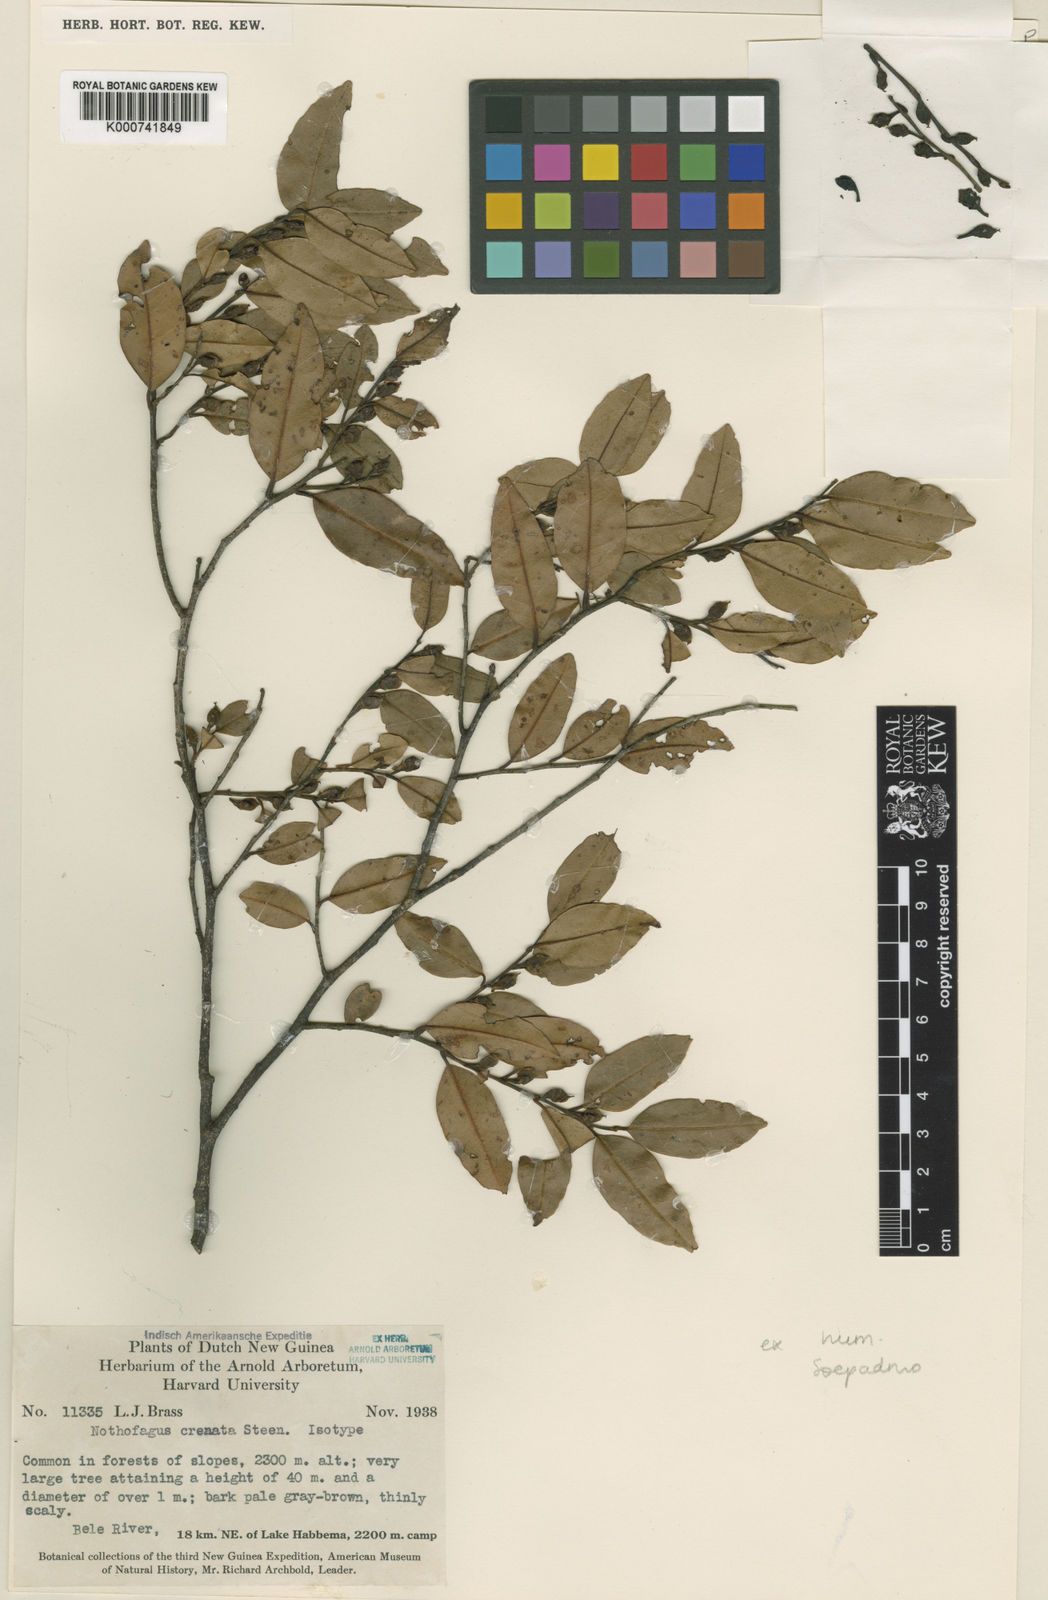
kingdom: Plantae
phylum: Tracheophyta
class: Magnoliopsida
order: Fagales
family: Nothofagaceae
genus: Nothofagus
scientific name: Nothofagus crenata
